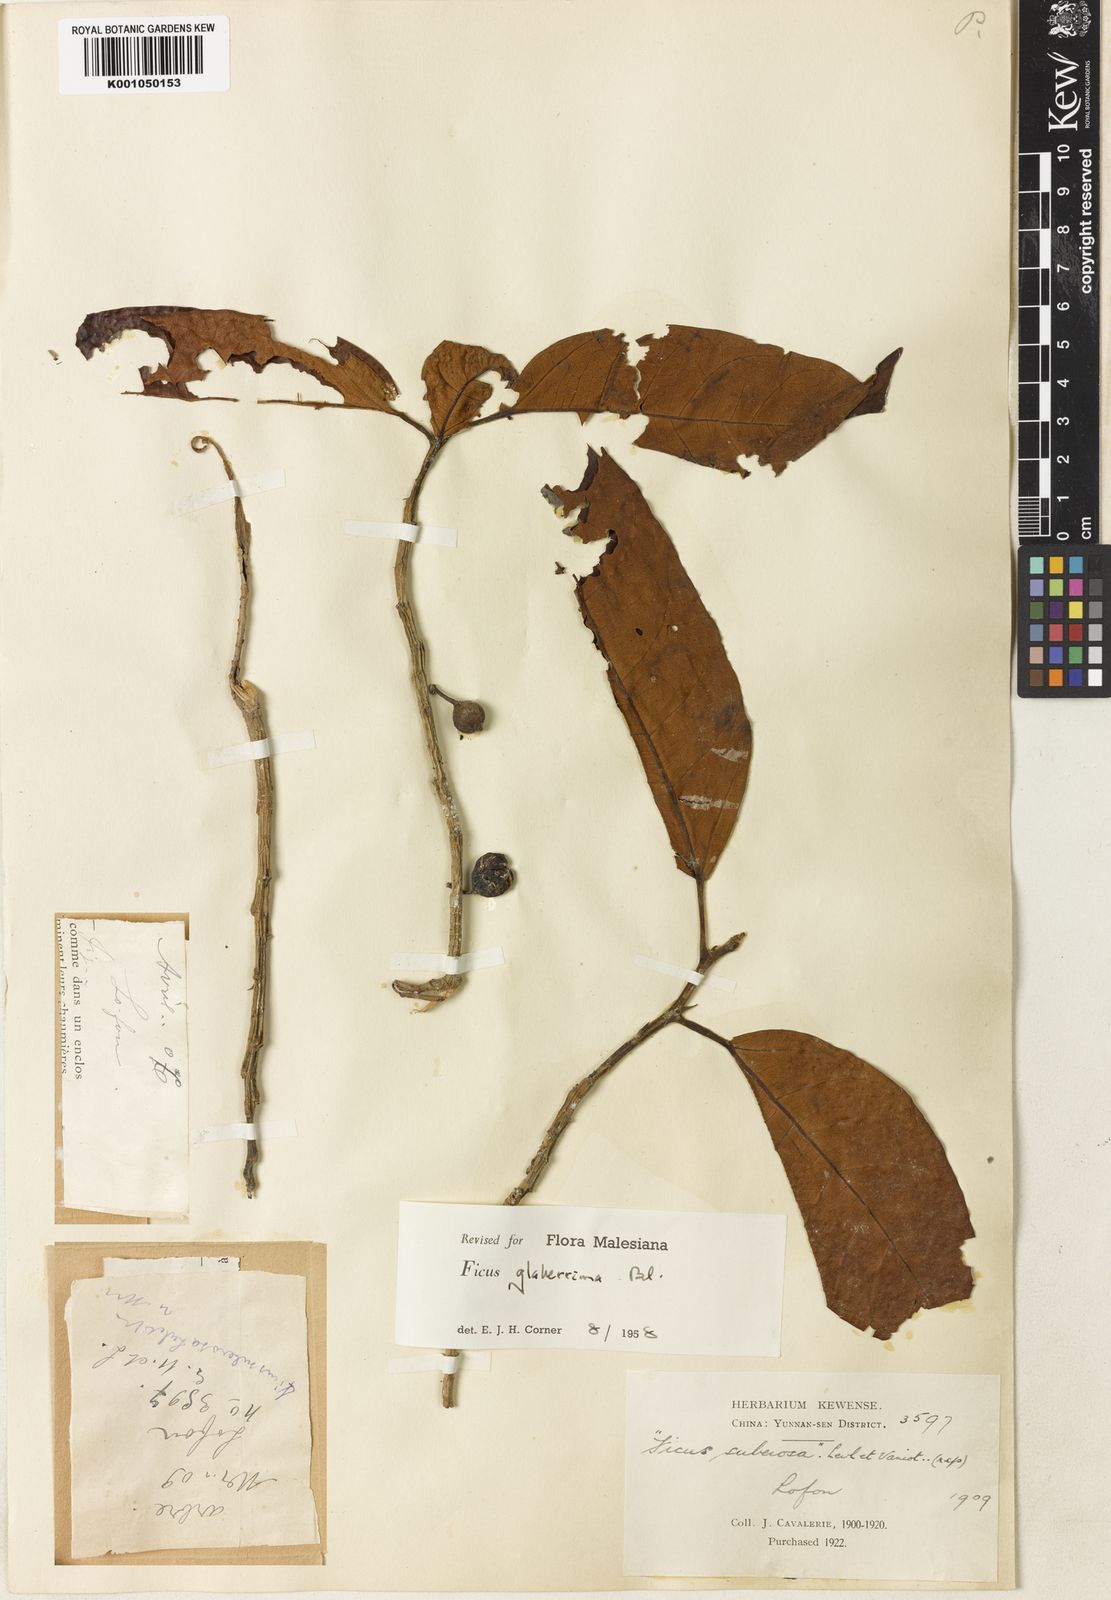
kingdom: Plantae
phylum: Tracheophyta
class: Magnoliopsida
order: Rosales
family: Moraceae
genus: Ficus
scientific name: Ficus glaberrima
